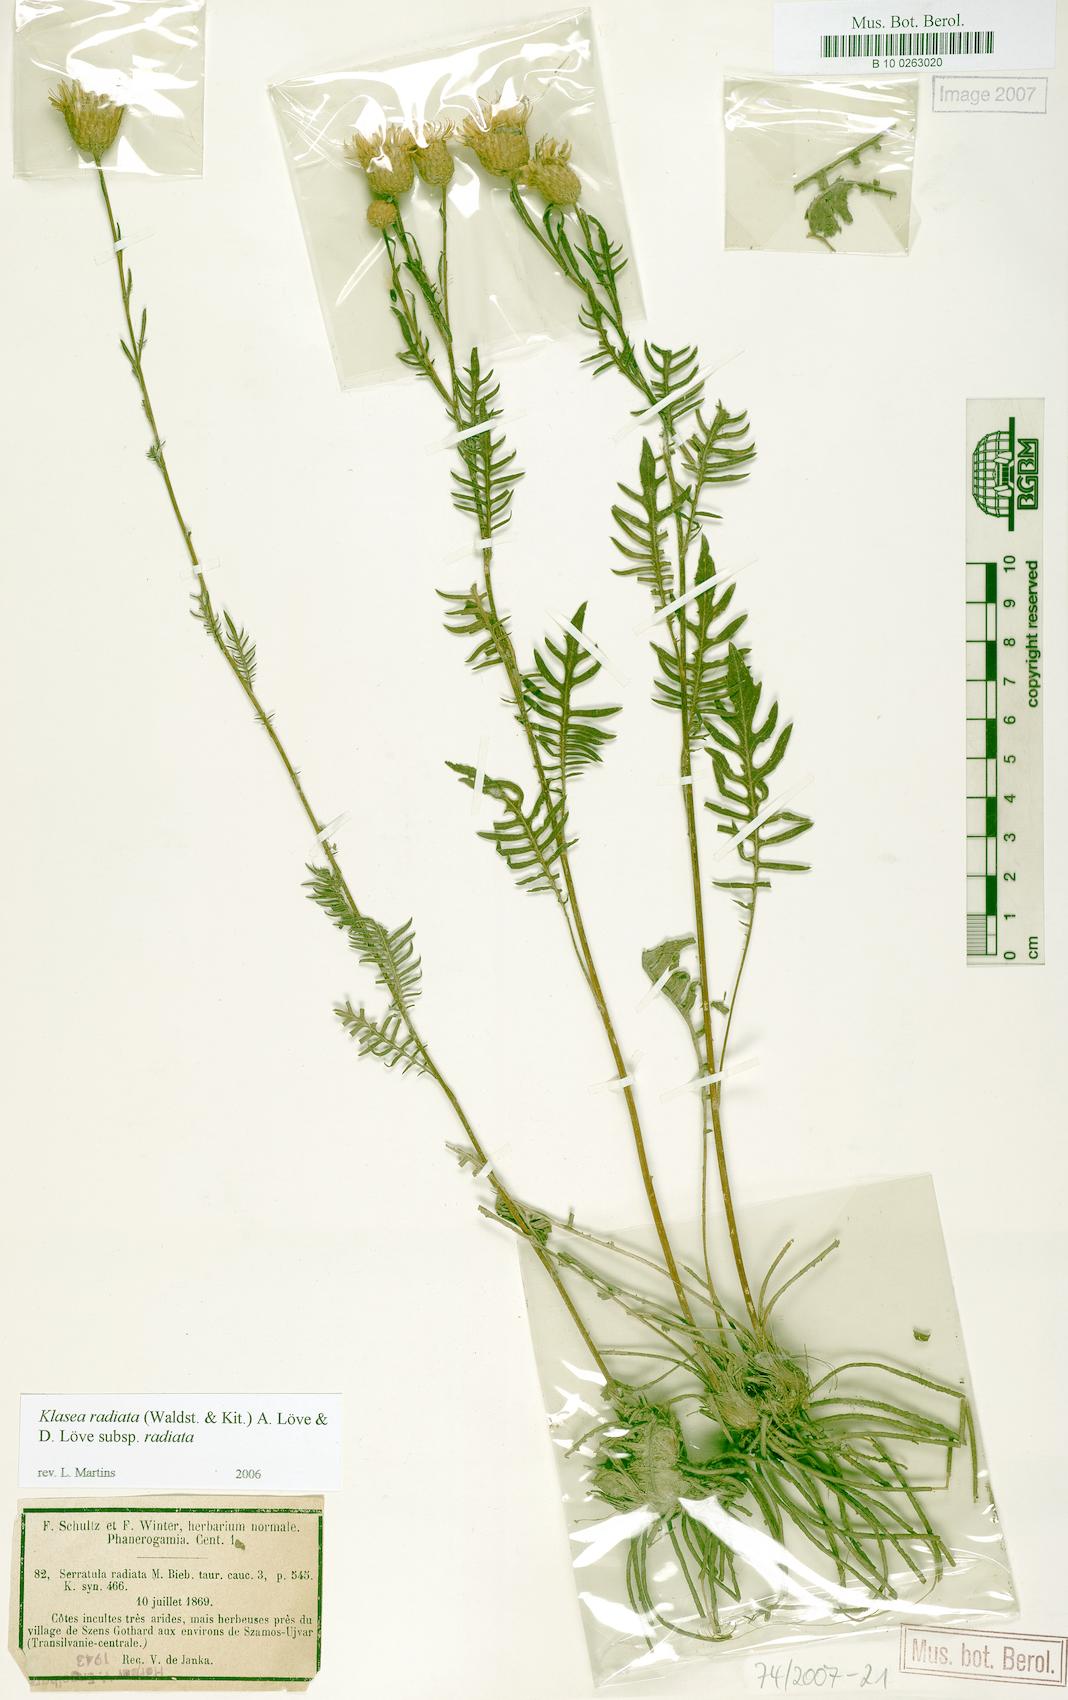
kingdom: Plantae
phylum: Tracheophyta
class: Magnoliopsida
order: Asterales
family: Asteraceae
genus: Klasea
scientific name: Klasea radiata
